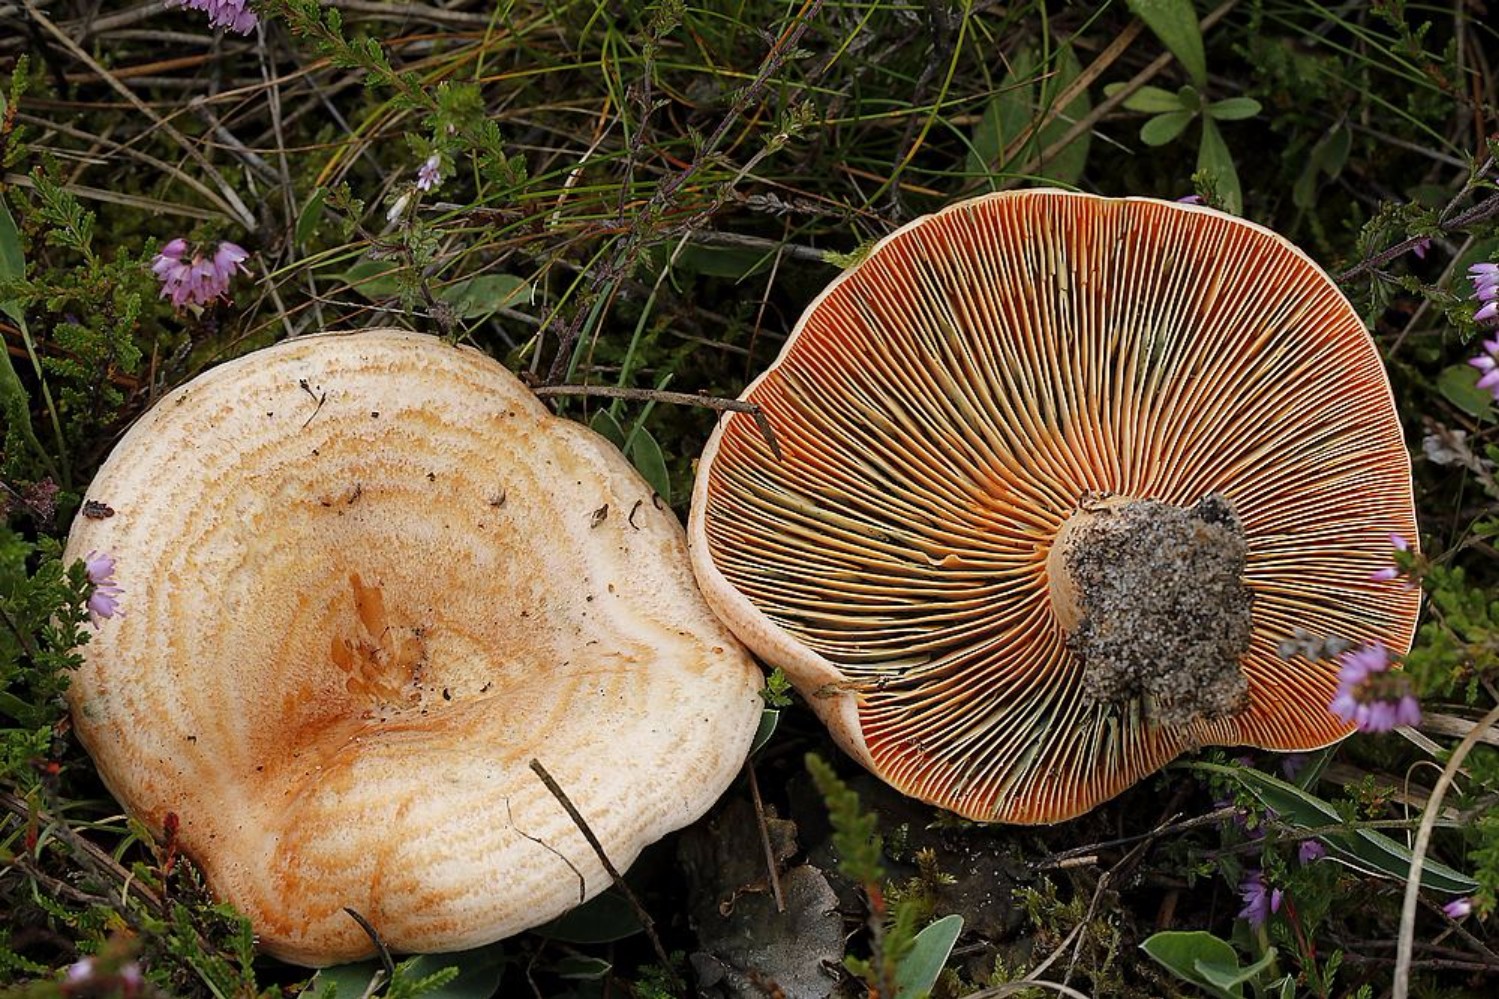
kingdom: Fungi
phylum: Basidiomycota
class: Agaricomycetes
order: Russulales
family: Russulaceae
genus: Lactarius
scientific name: Lactarius deliciosus
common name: velsmagende mælkehat
